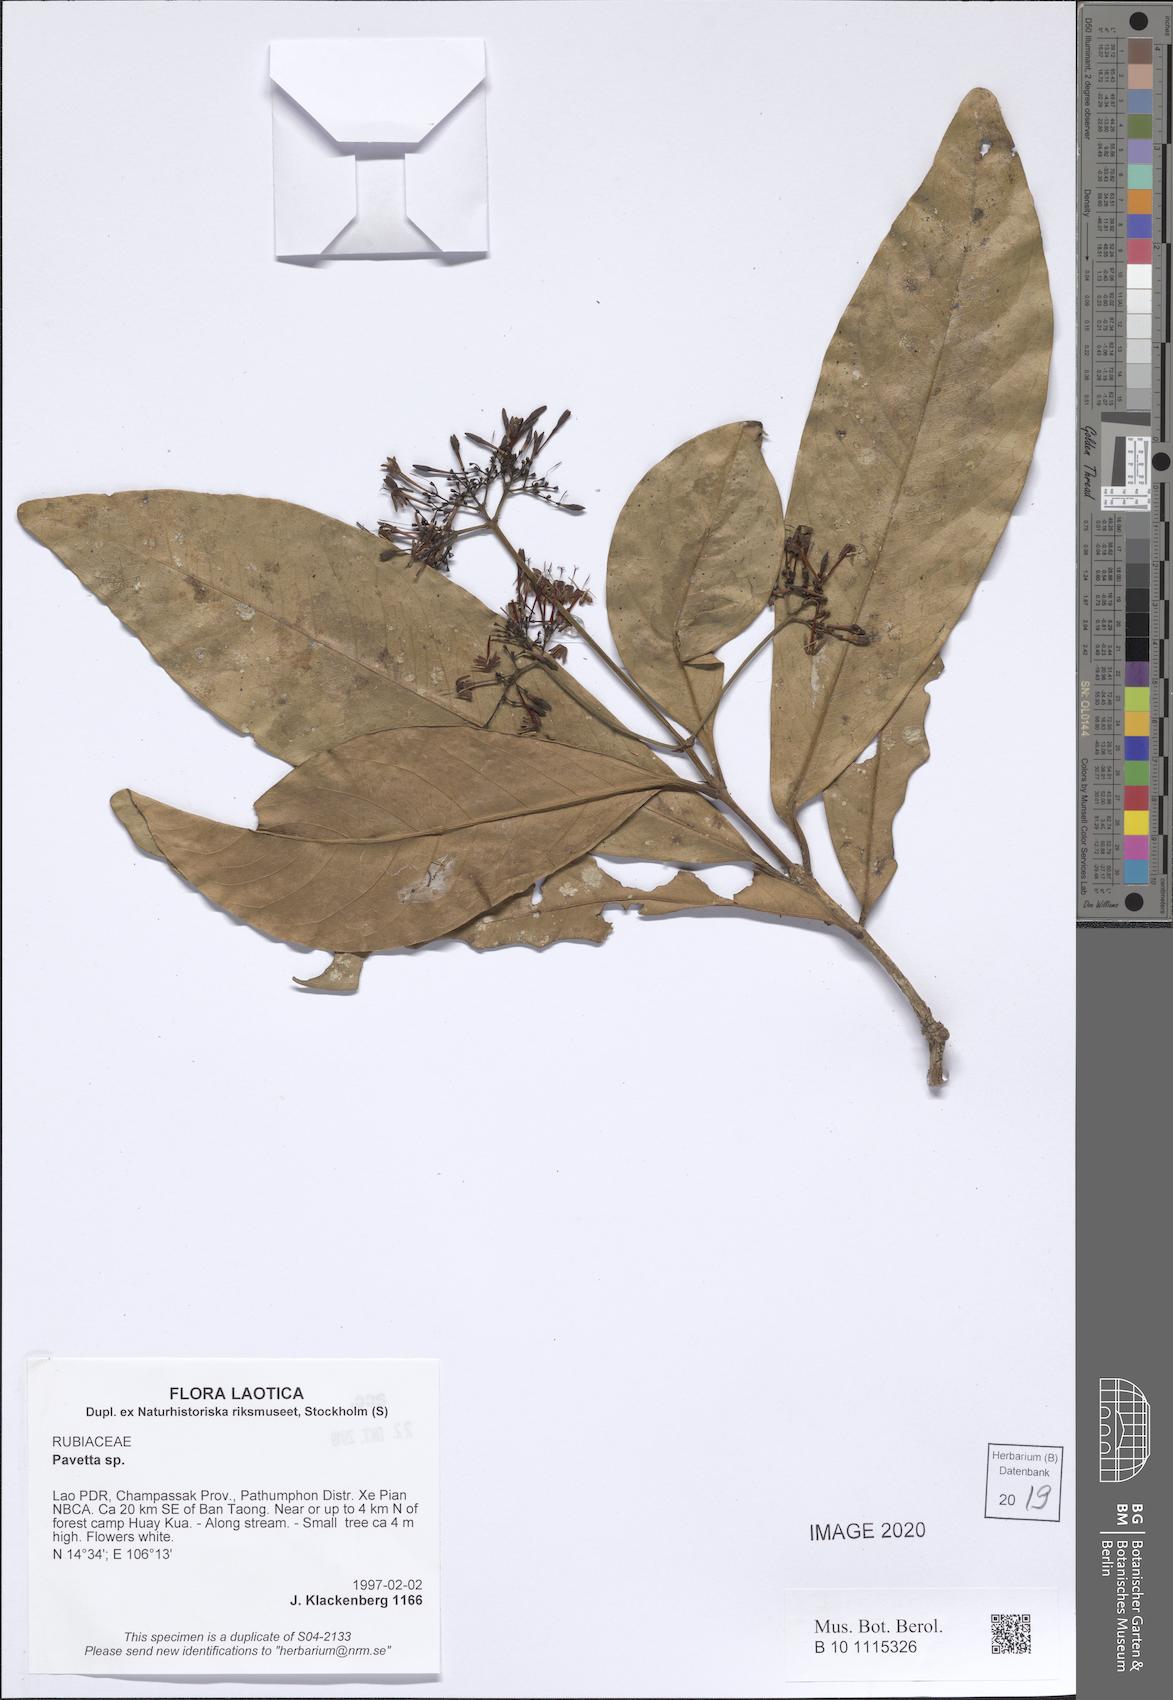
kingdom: Plantae
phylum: Tracheophyta
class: Magnoliopsida
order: Gentianales
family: Rubiaceae
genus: Pavetta
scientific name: Pavetta
